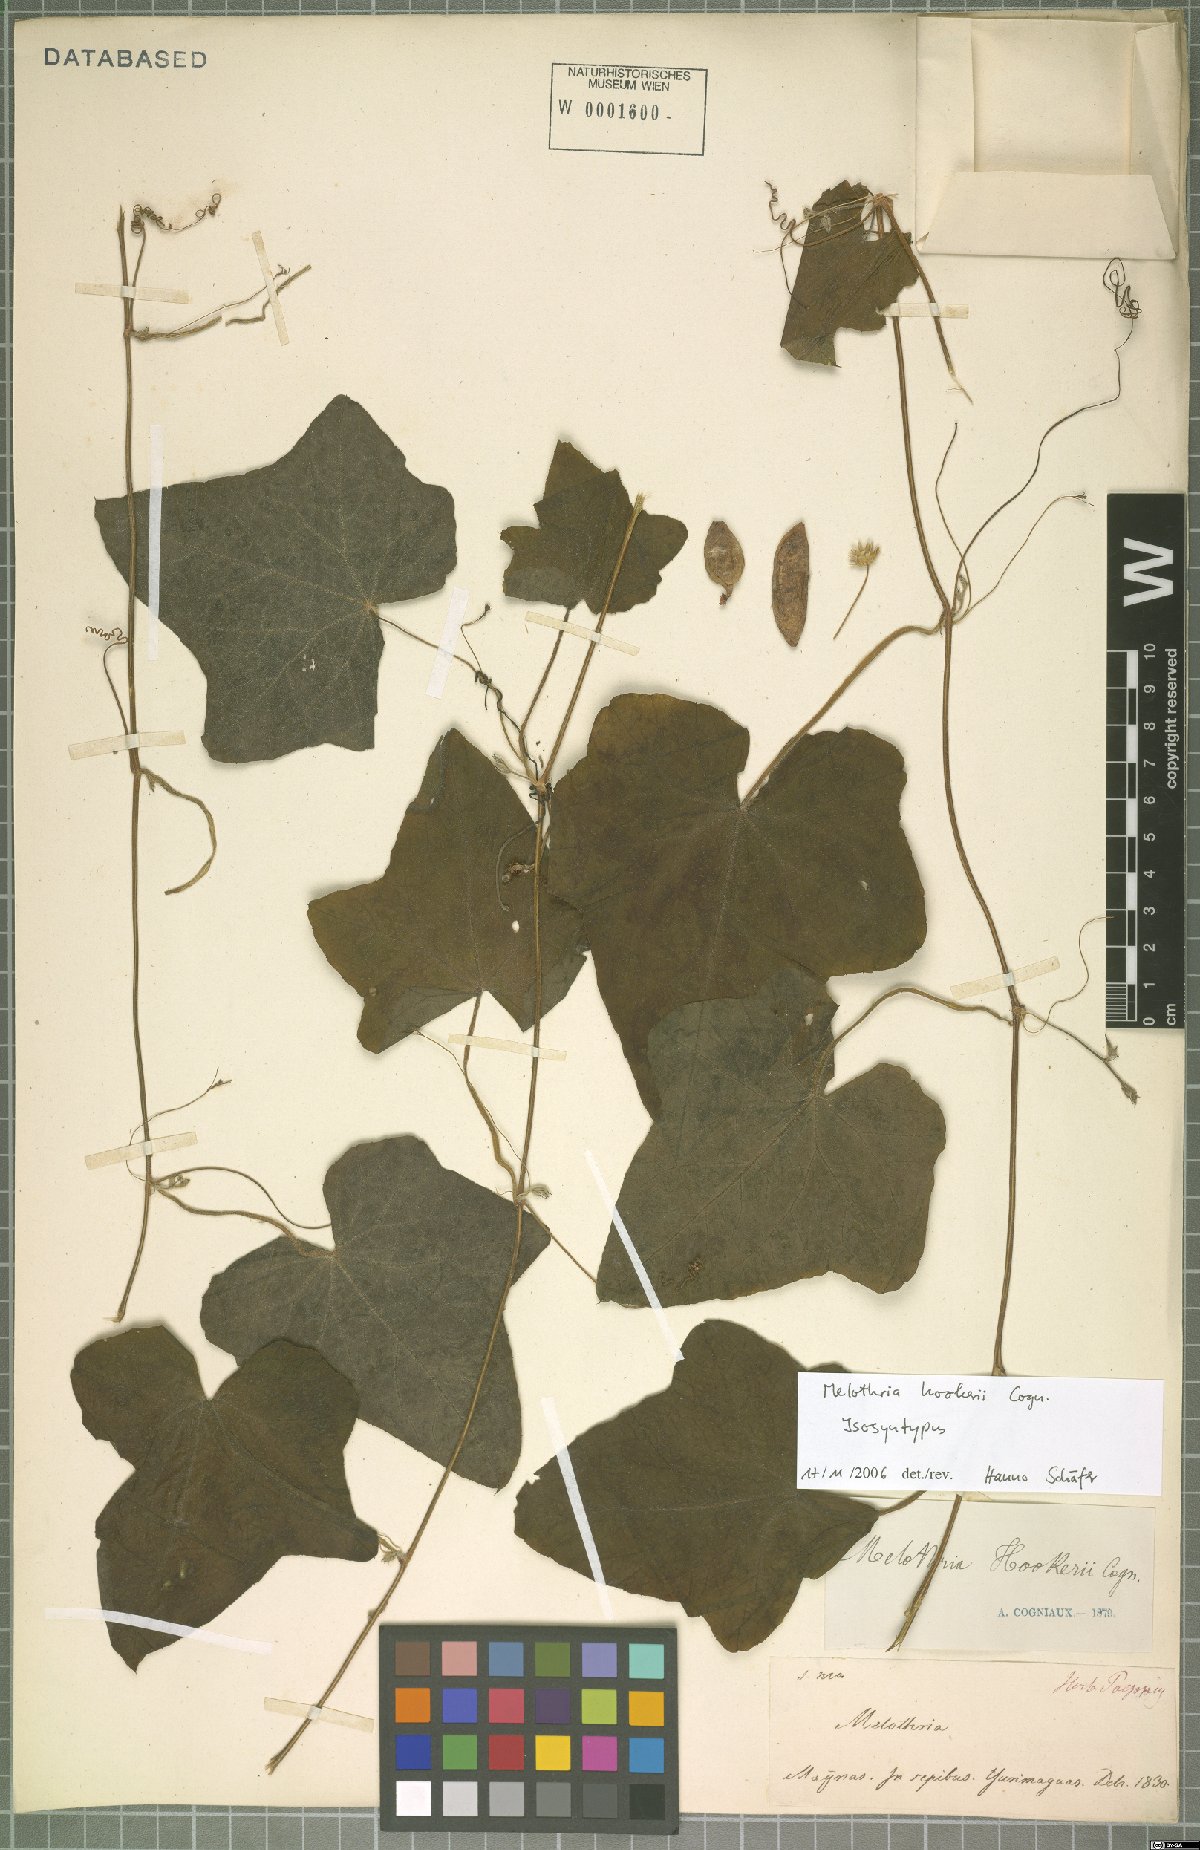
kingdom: Plantae
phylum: Tracheophyta
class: Magnoliopsida
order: Cucurbitales
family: Cucurbitaceae
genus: Melothria
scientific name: Melothria warmingii
